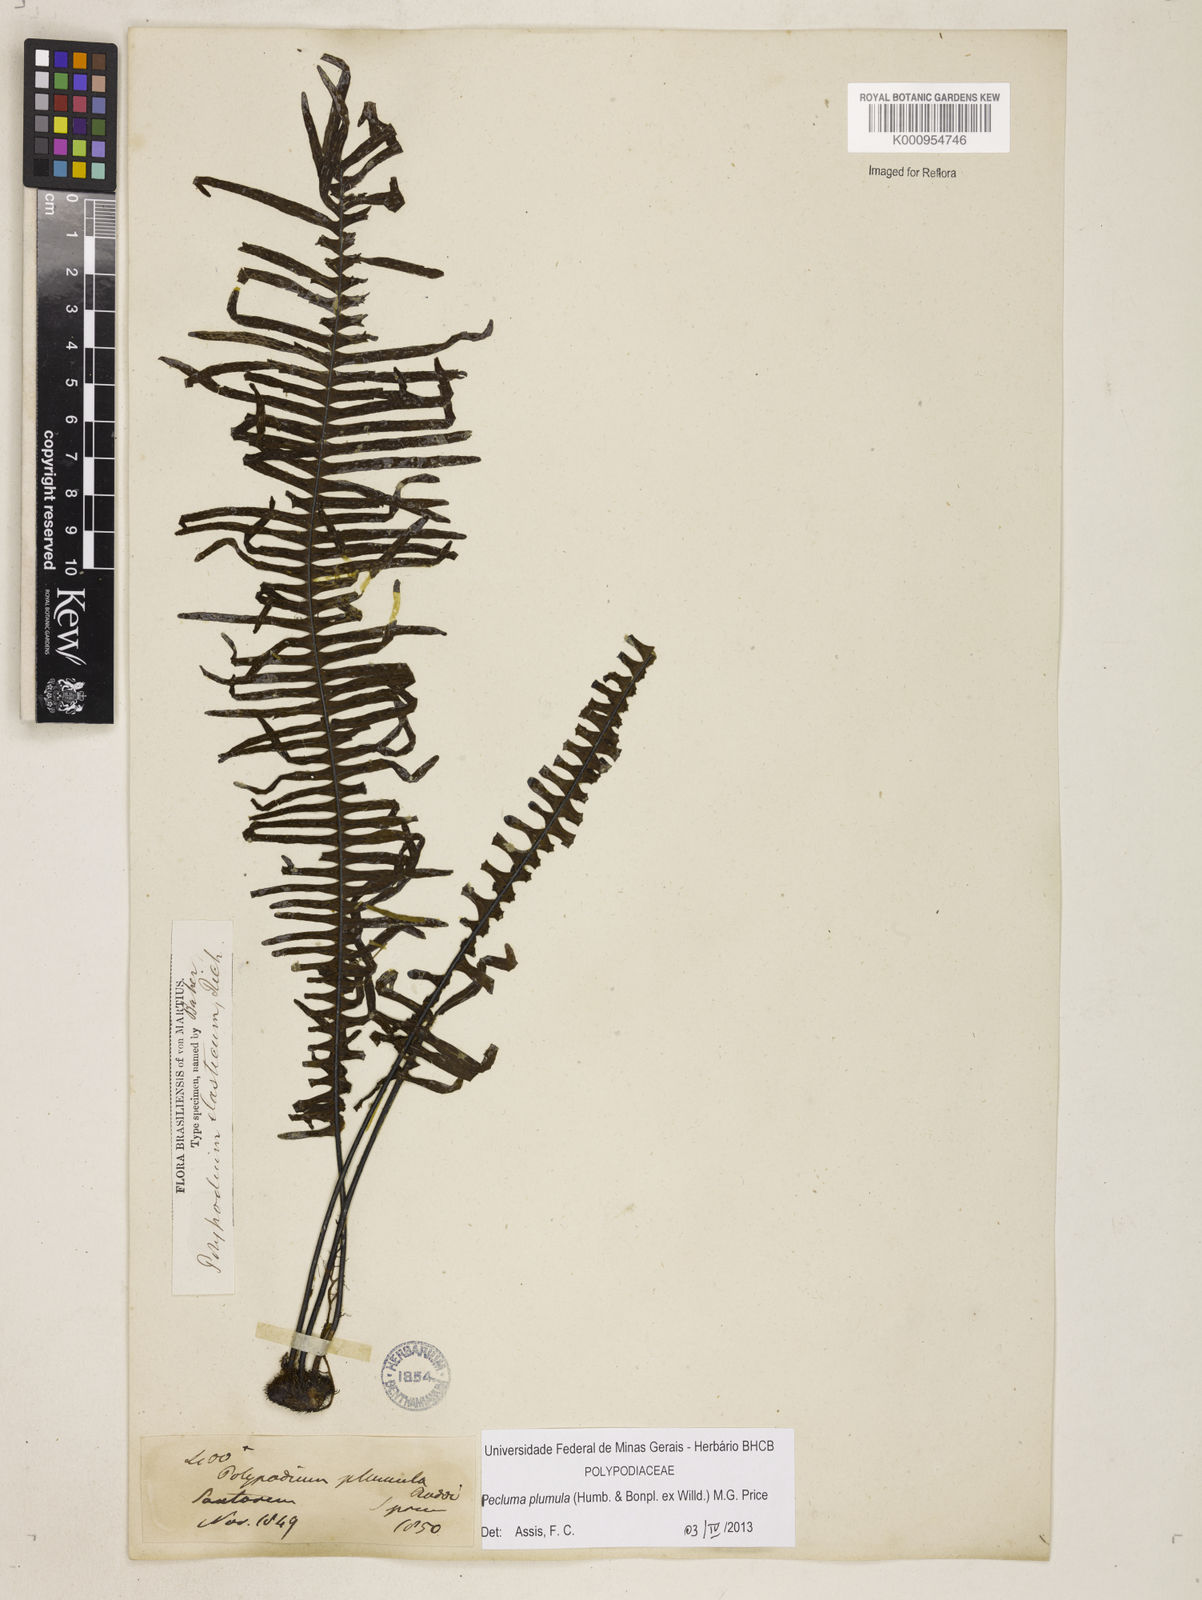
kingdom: Plantae
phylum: Tracheophyta
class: Polypodiopsida
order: Polypodiales
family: Polypodiaceae
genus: Pecluma
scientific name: Pecluma plumula
